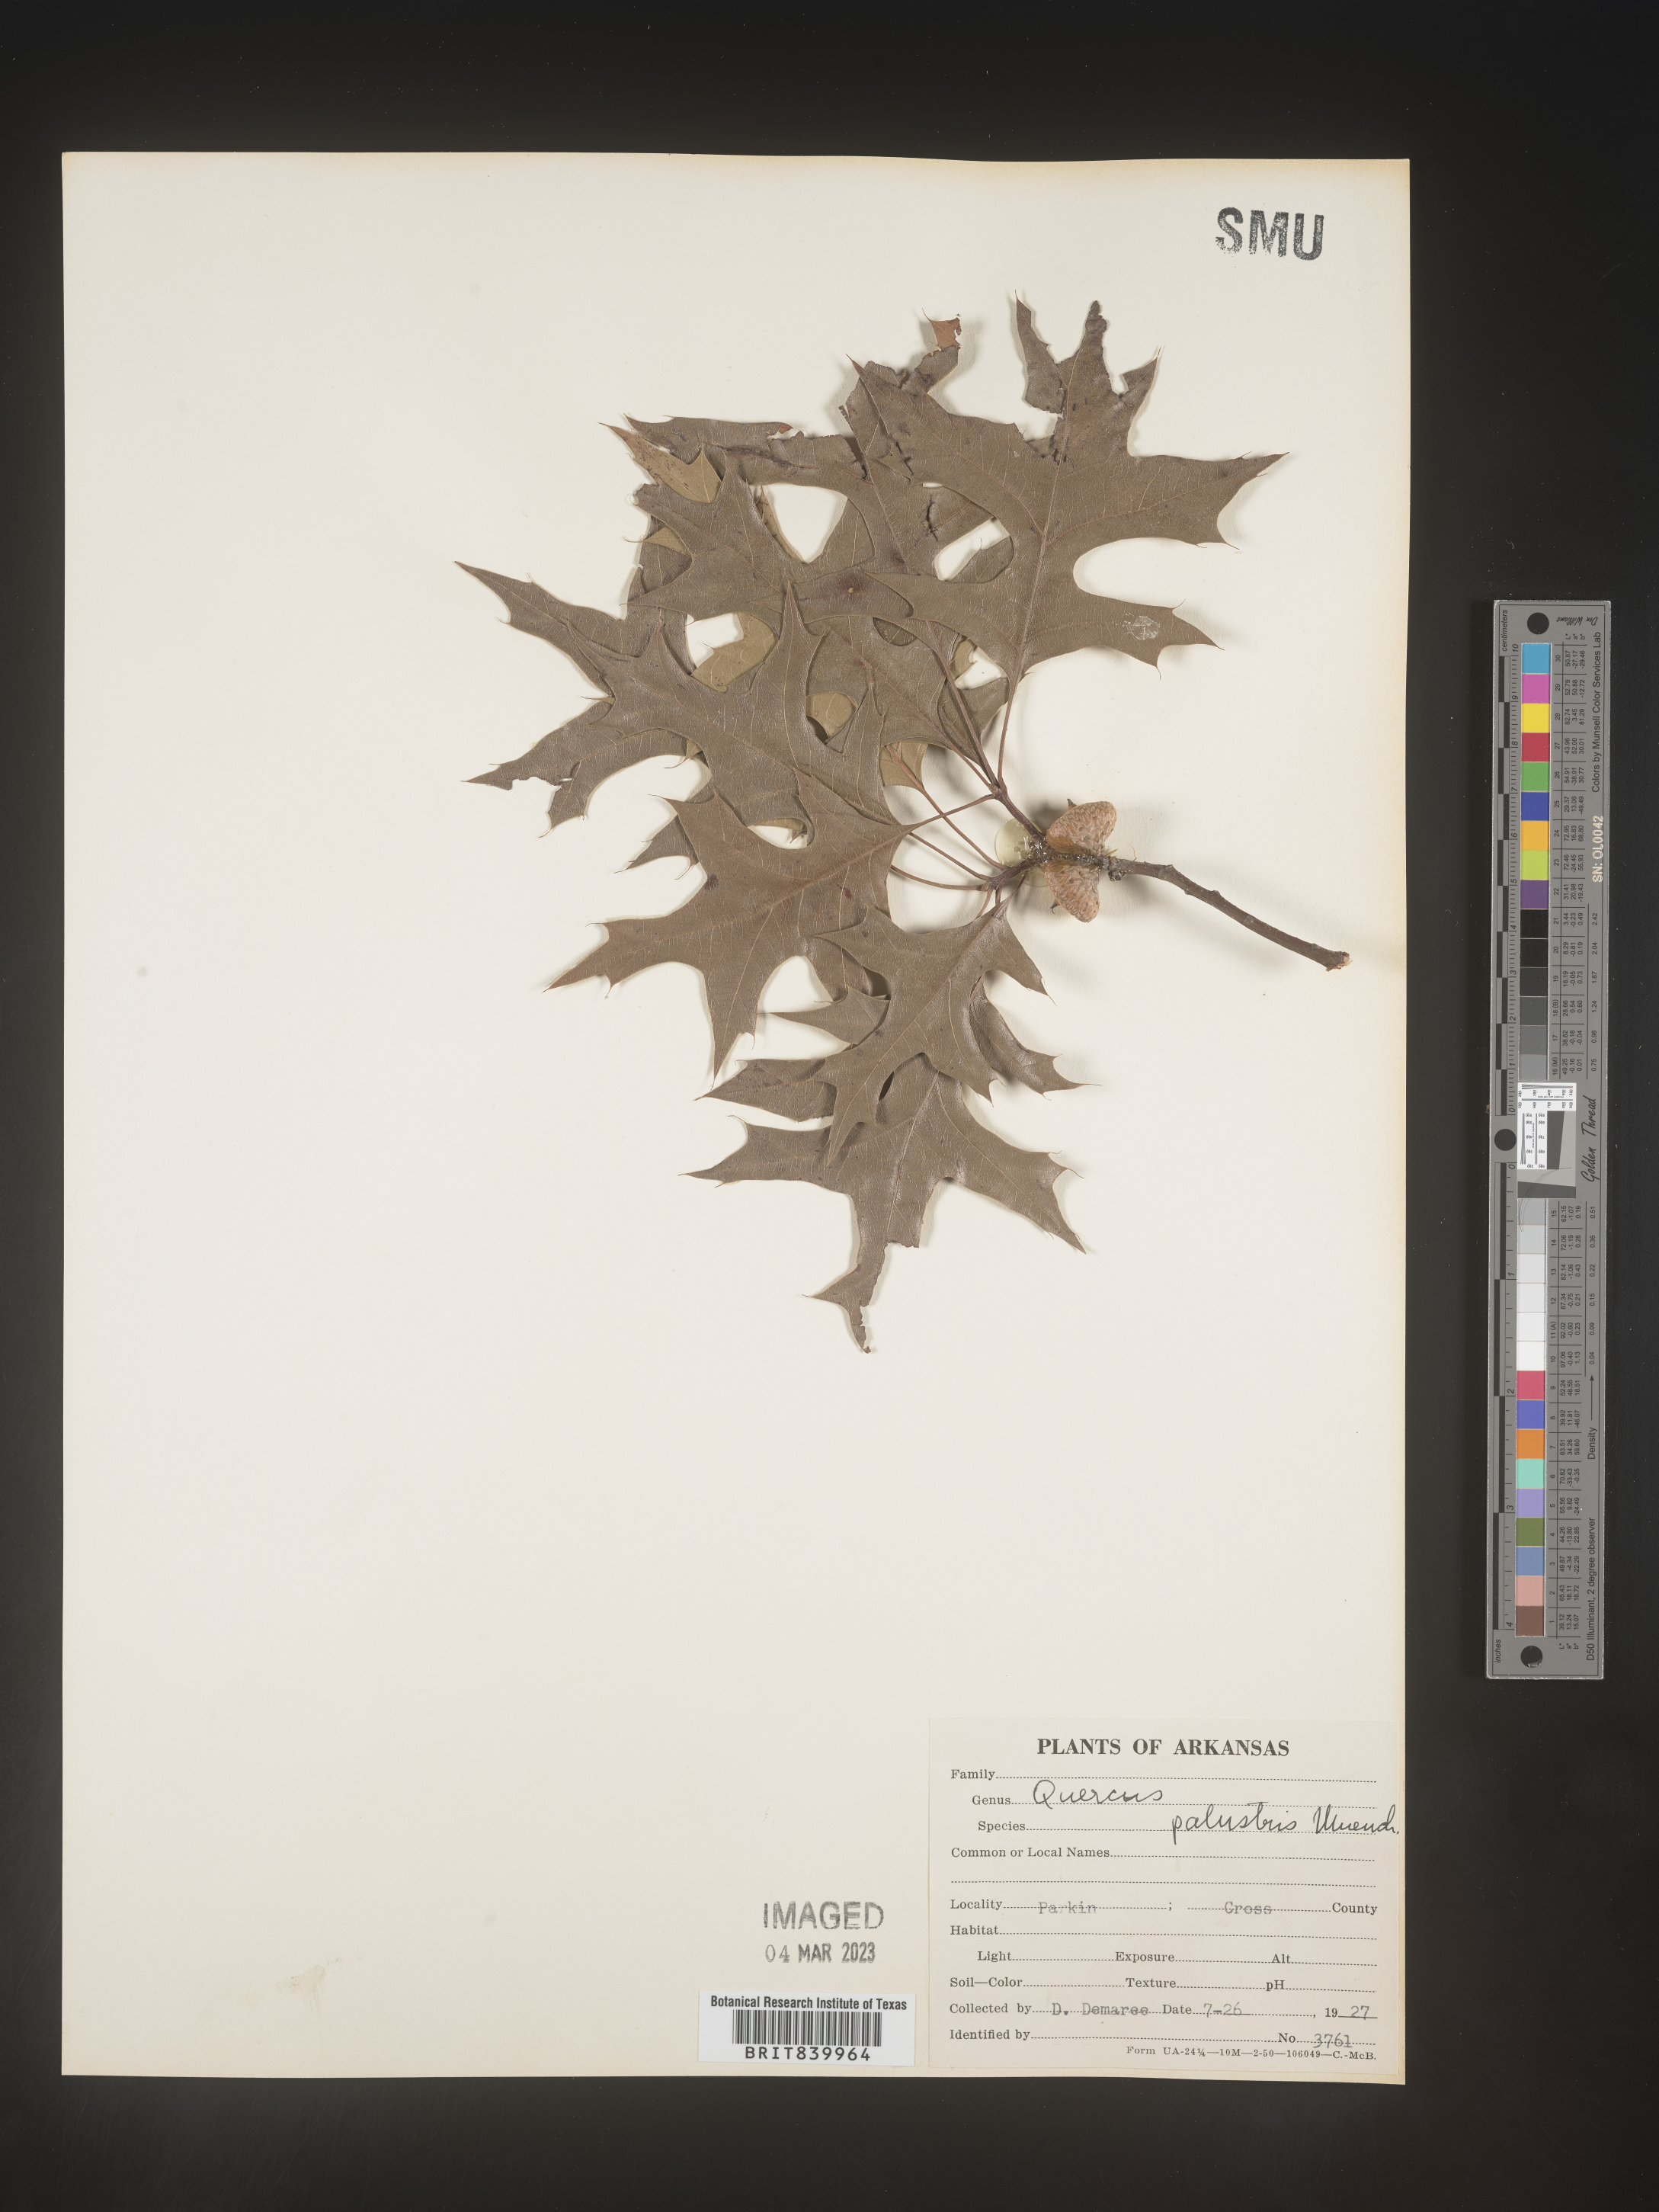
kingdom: Plantae
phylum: Tracheophyta
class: Magnoliopsida
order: Fagales
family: Fagaceae
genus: Quercus
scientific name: Quercus palustris
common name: Pin oak
